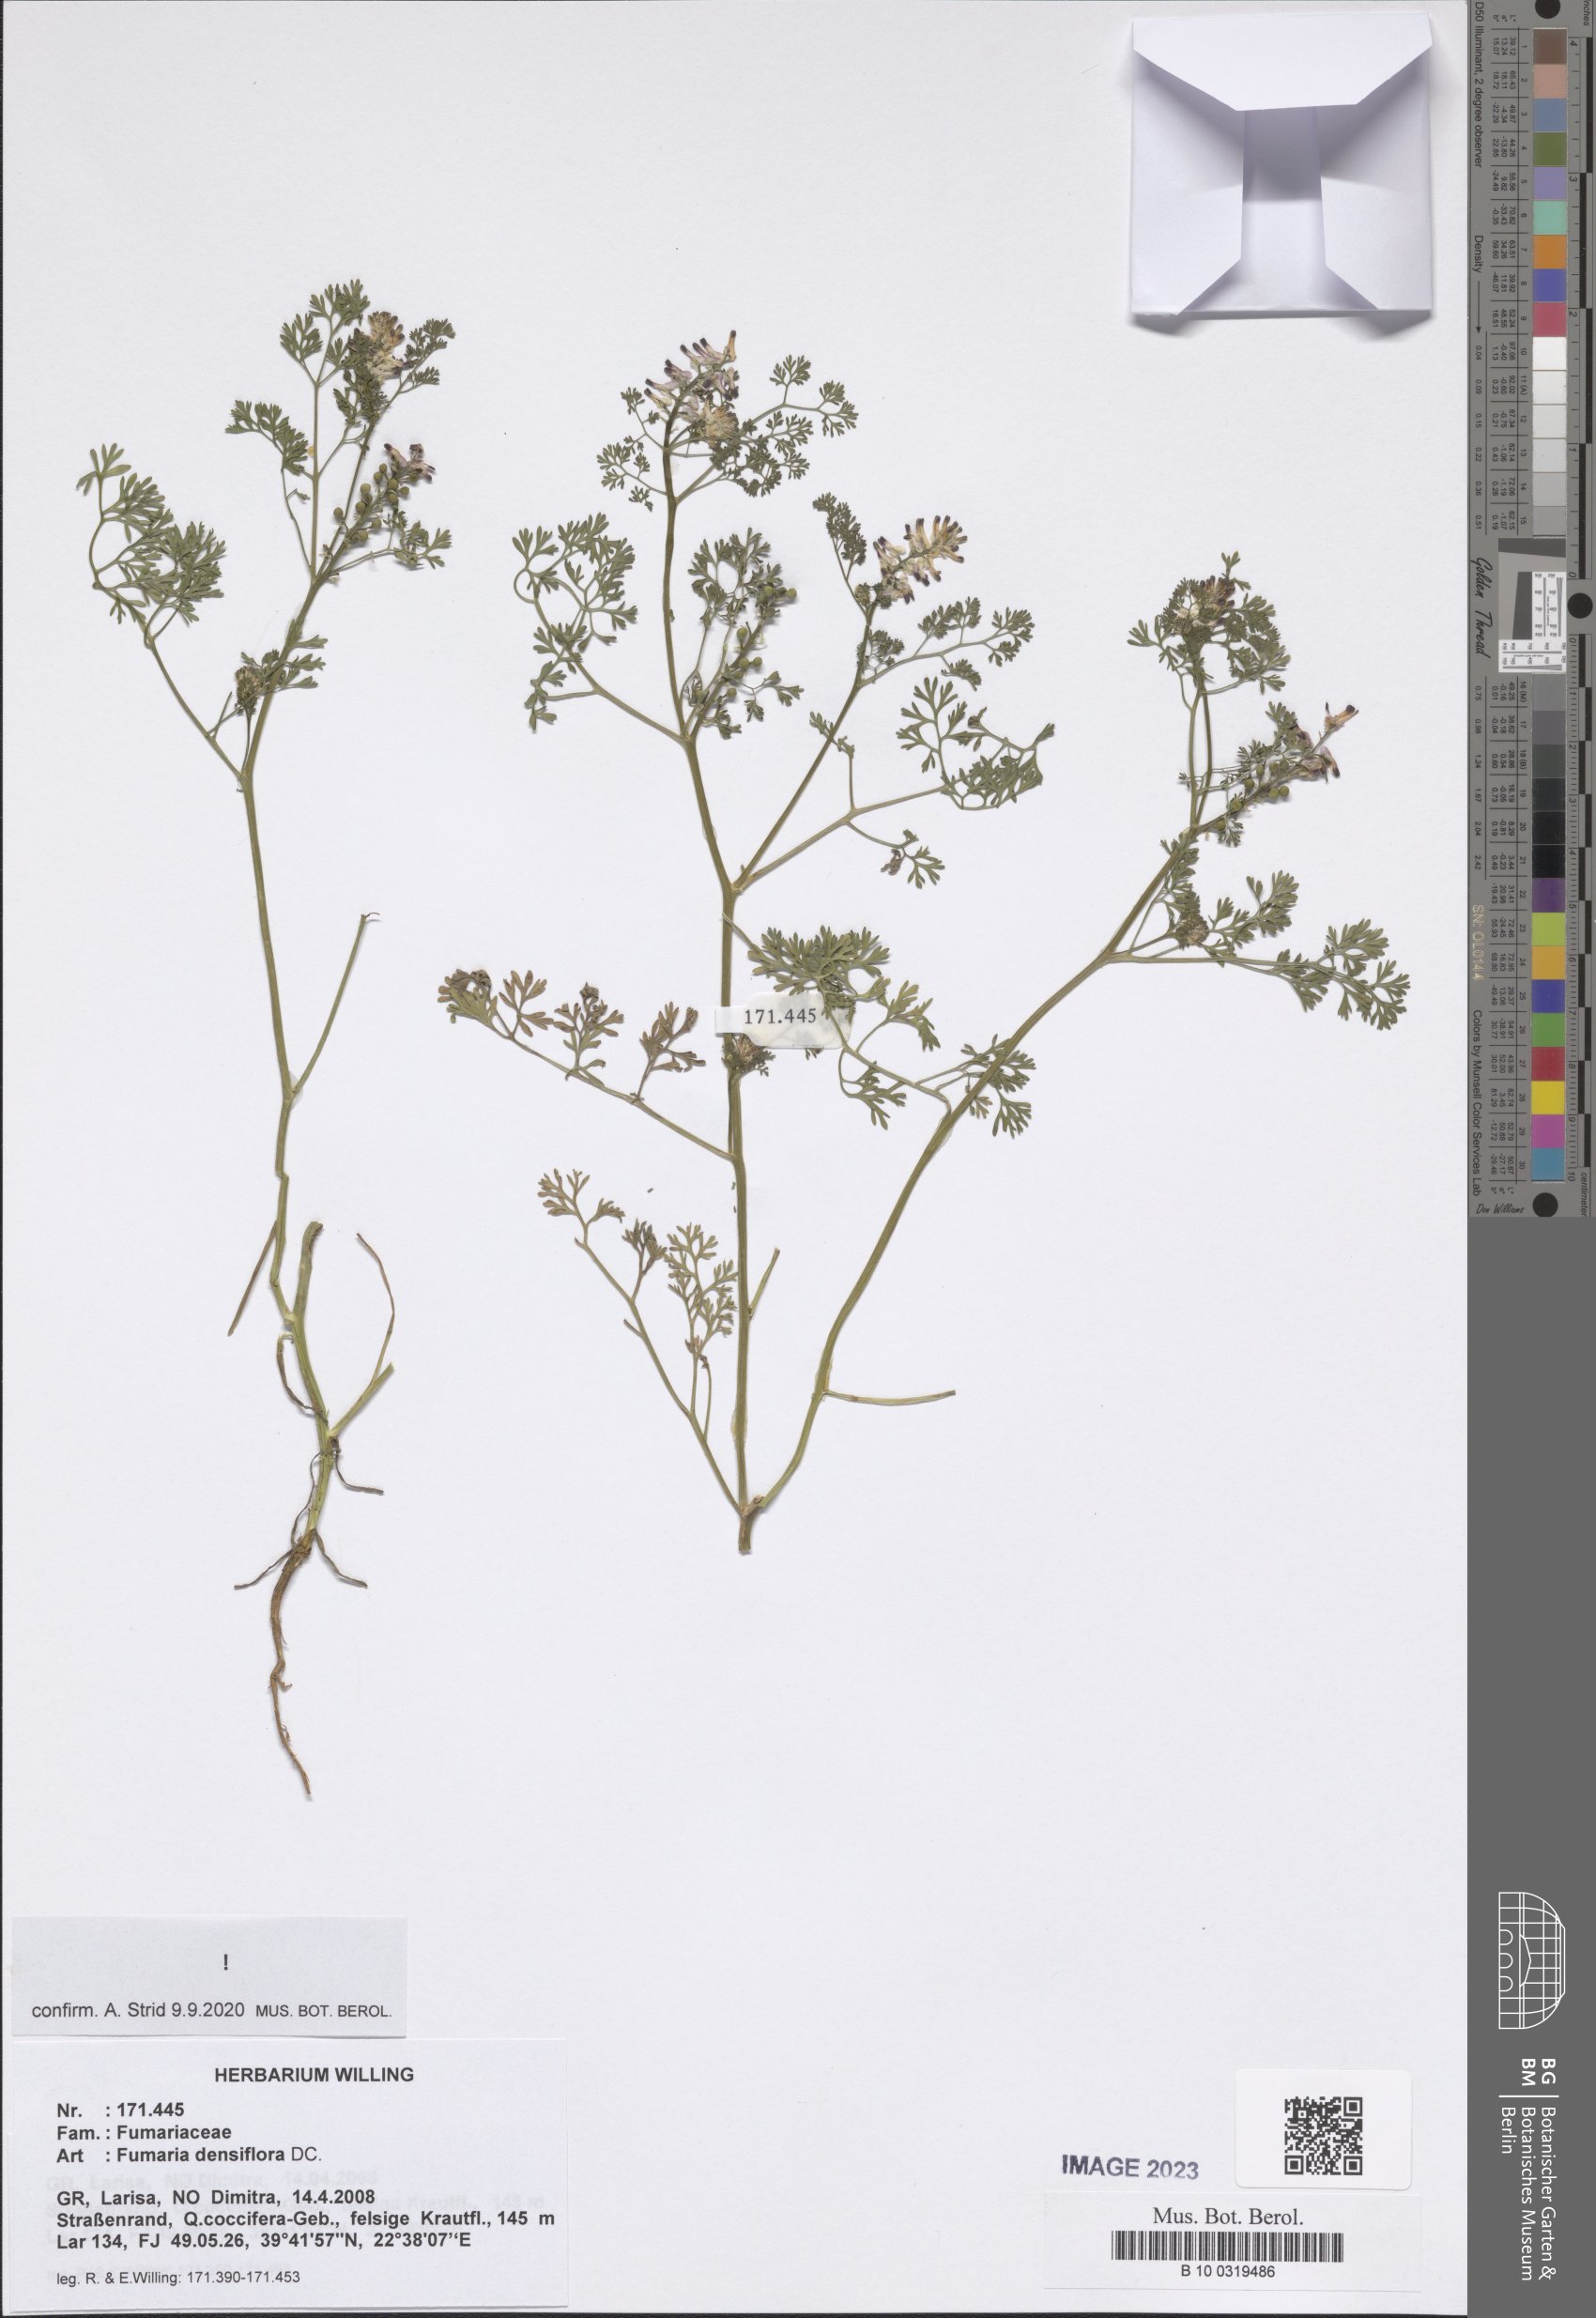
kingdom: Plantae
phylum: Tracheophyta
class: Magnoliopsida
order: Ranunculales
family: Papaveraceae
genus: Fumaria
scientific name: Fumaria densiflora
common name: Dense-flowered fumitory
